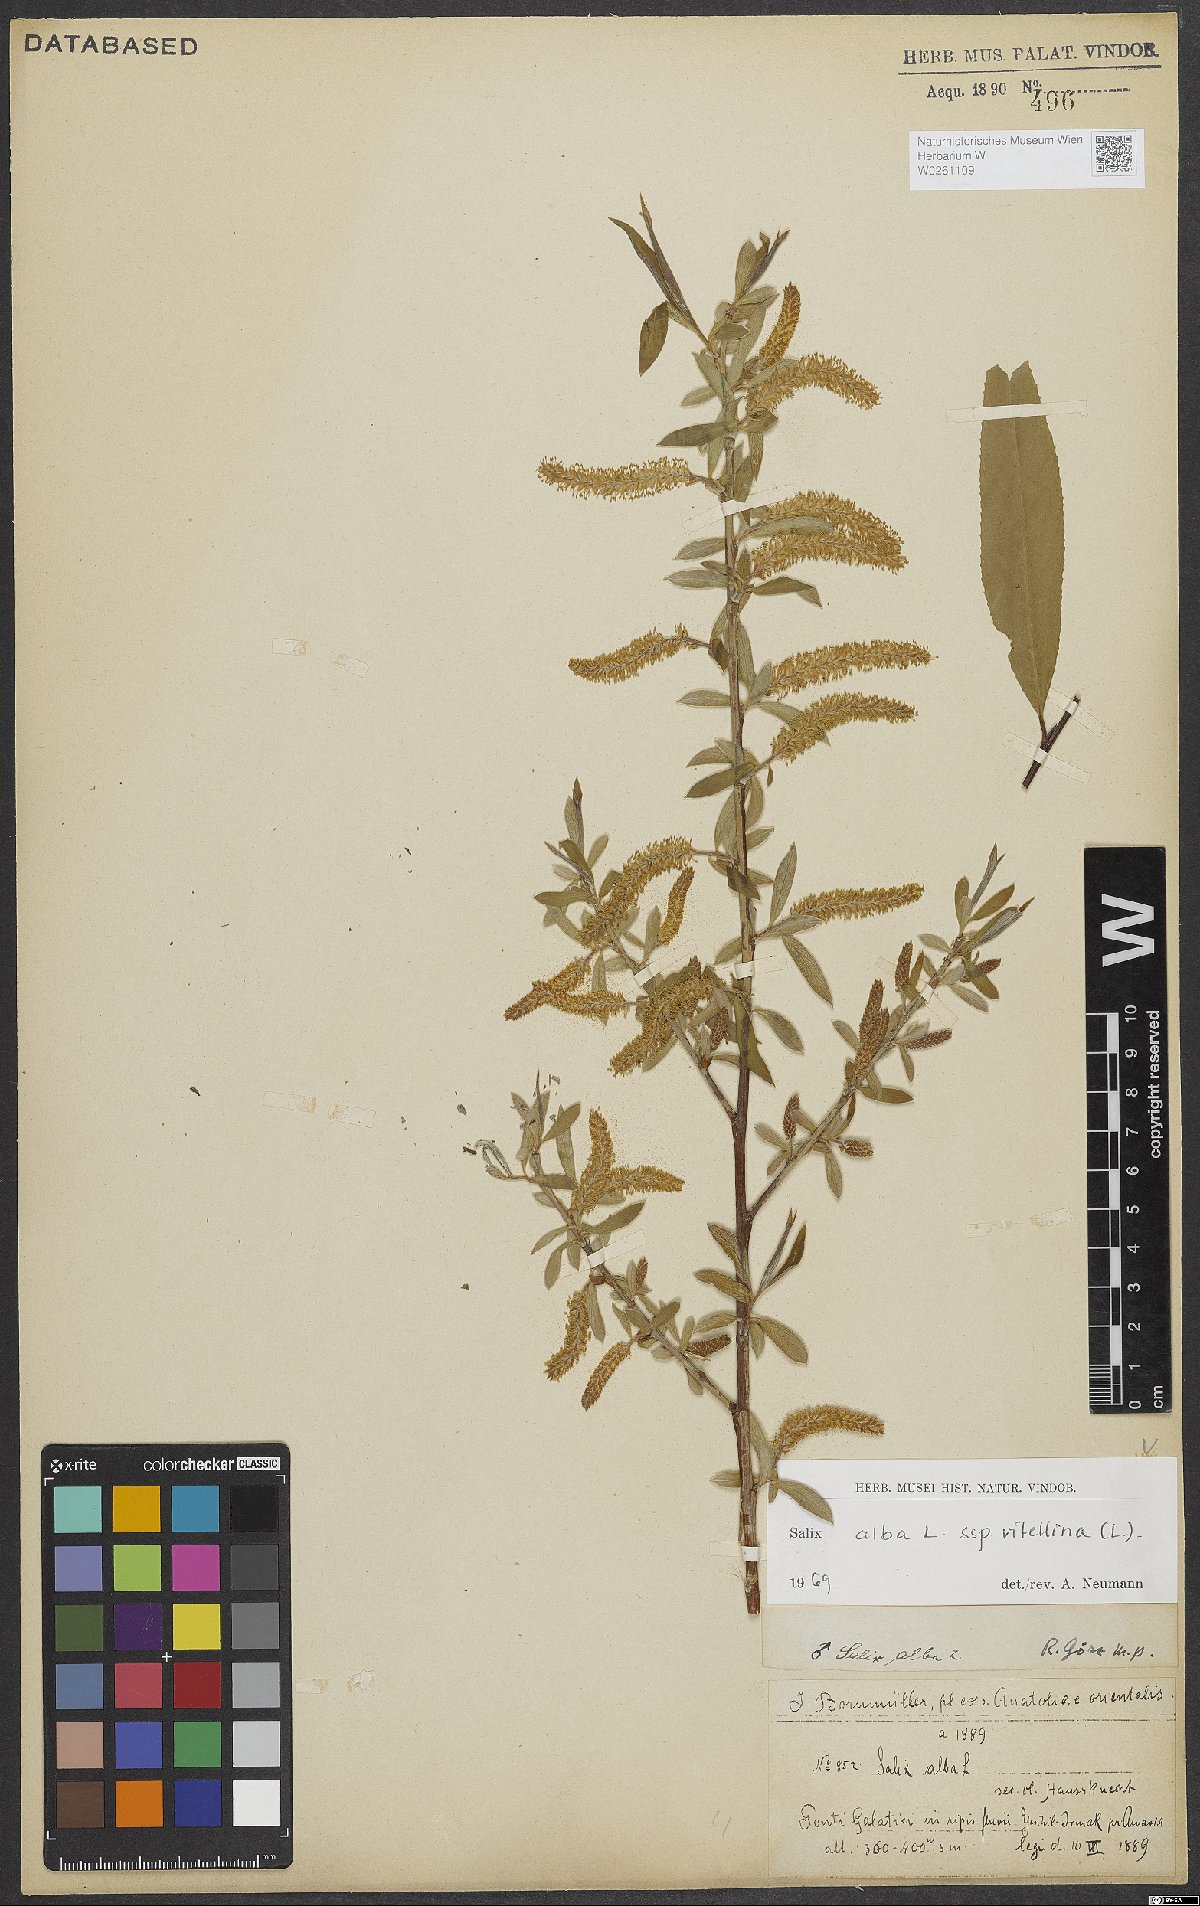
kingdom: Plantae
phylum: Tracheophyta
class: Magnoliopsida
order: Malpighiales
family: Salicaceae
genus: Salix
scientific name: Salix alba
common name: White willow
